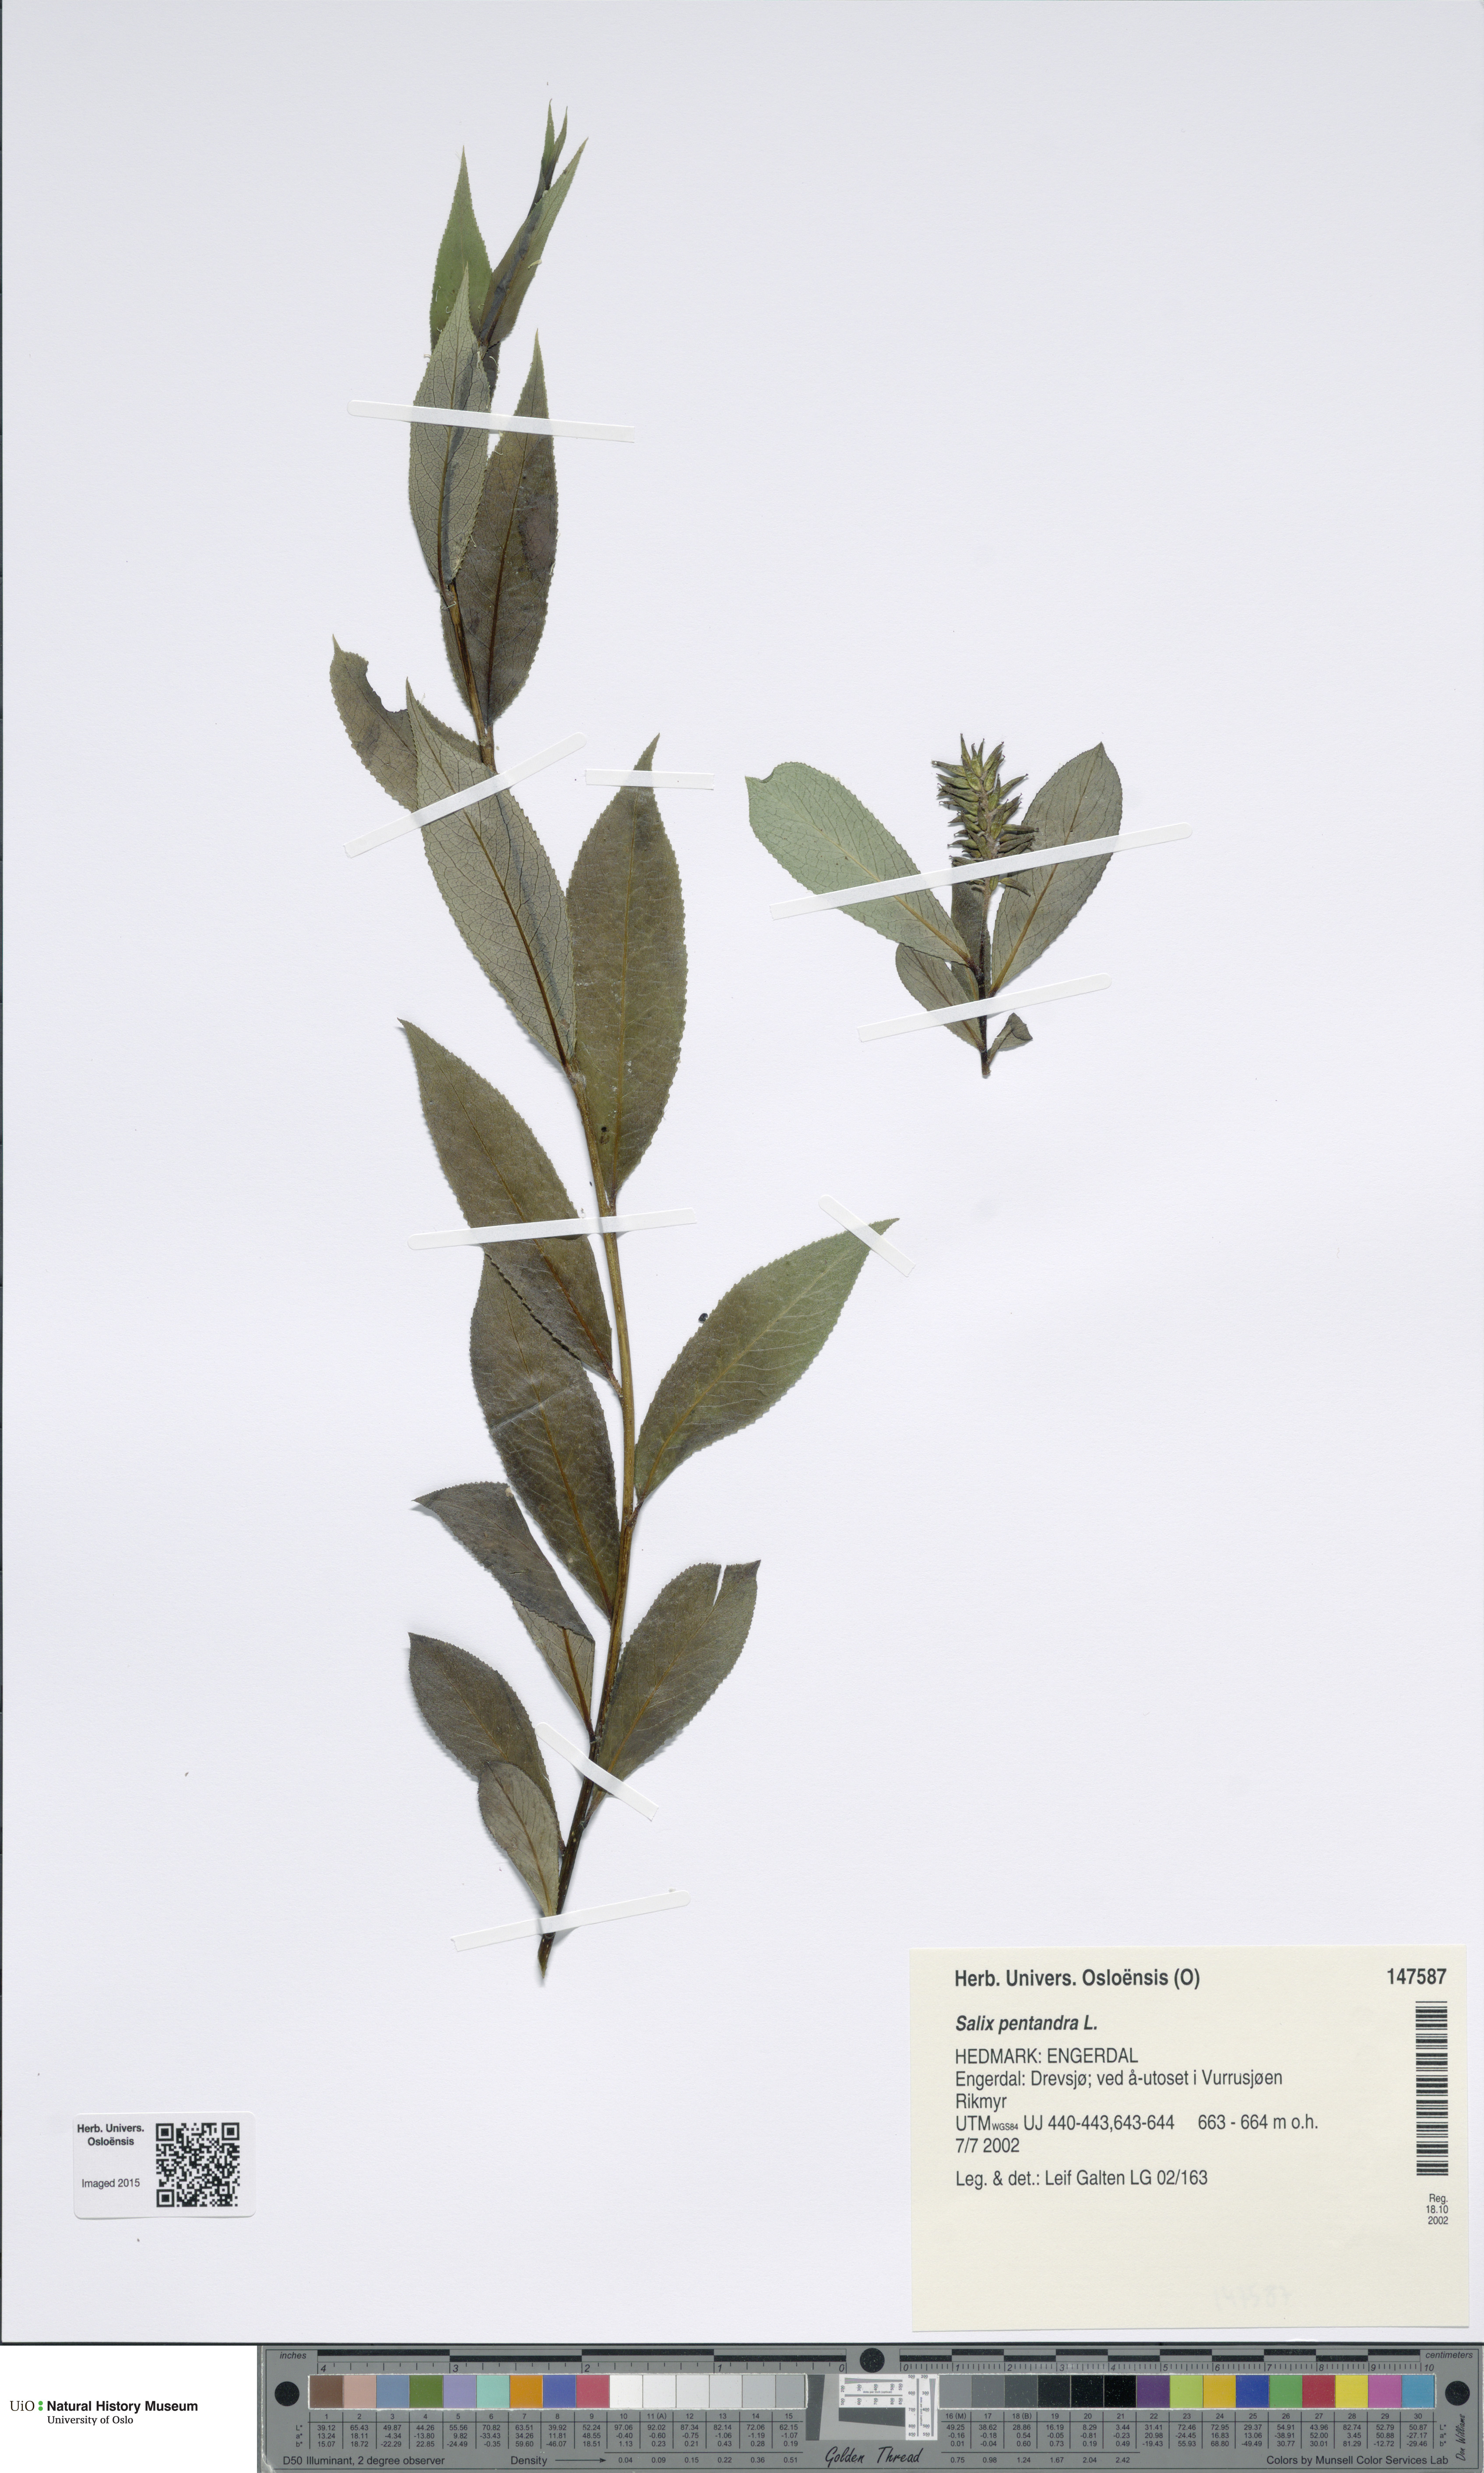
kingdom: Plantae
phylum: Tracheophyta
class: Magnoliopsida
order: Malpighiales
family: Salicaceae
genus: Salix
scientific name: Salix pentandra
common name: Bay willow
